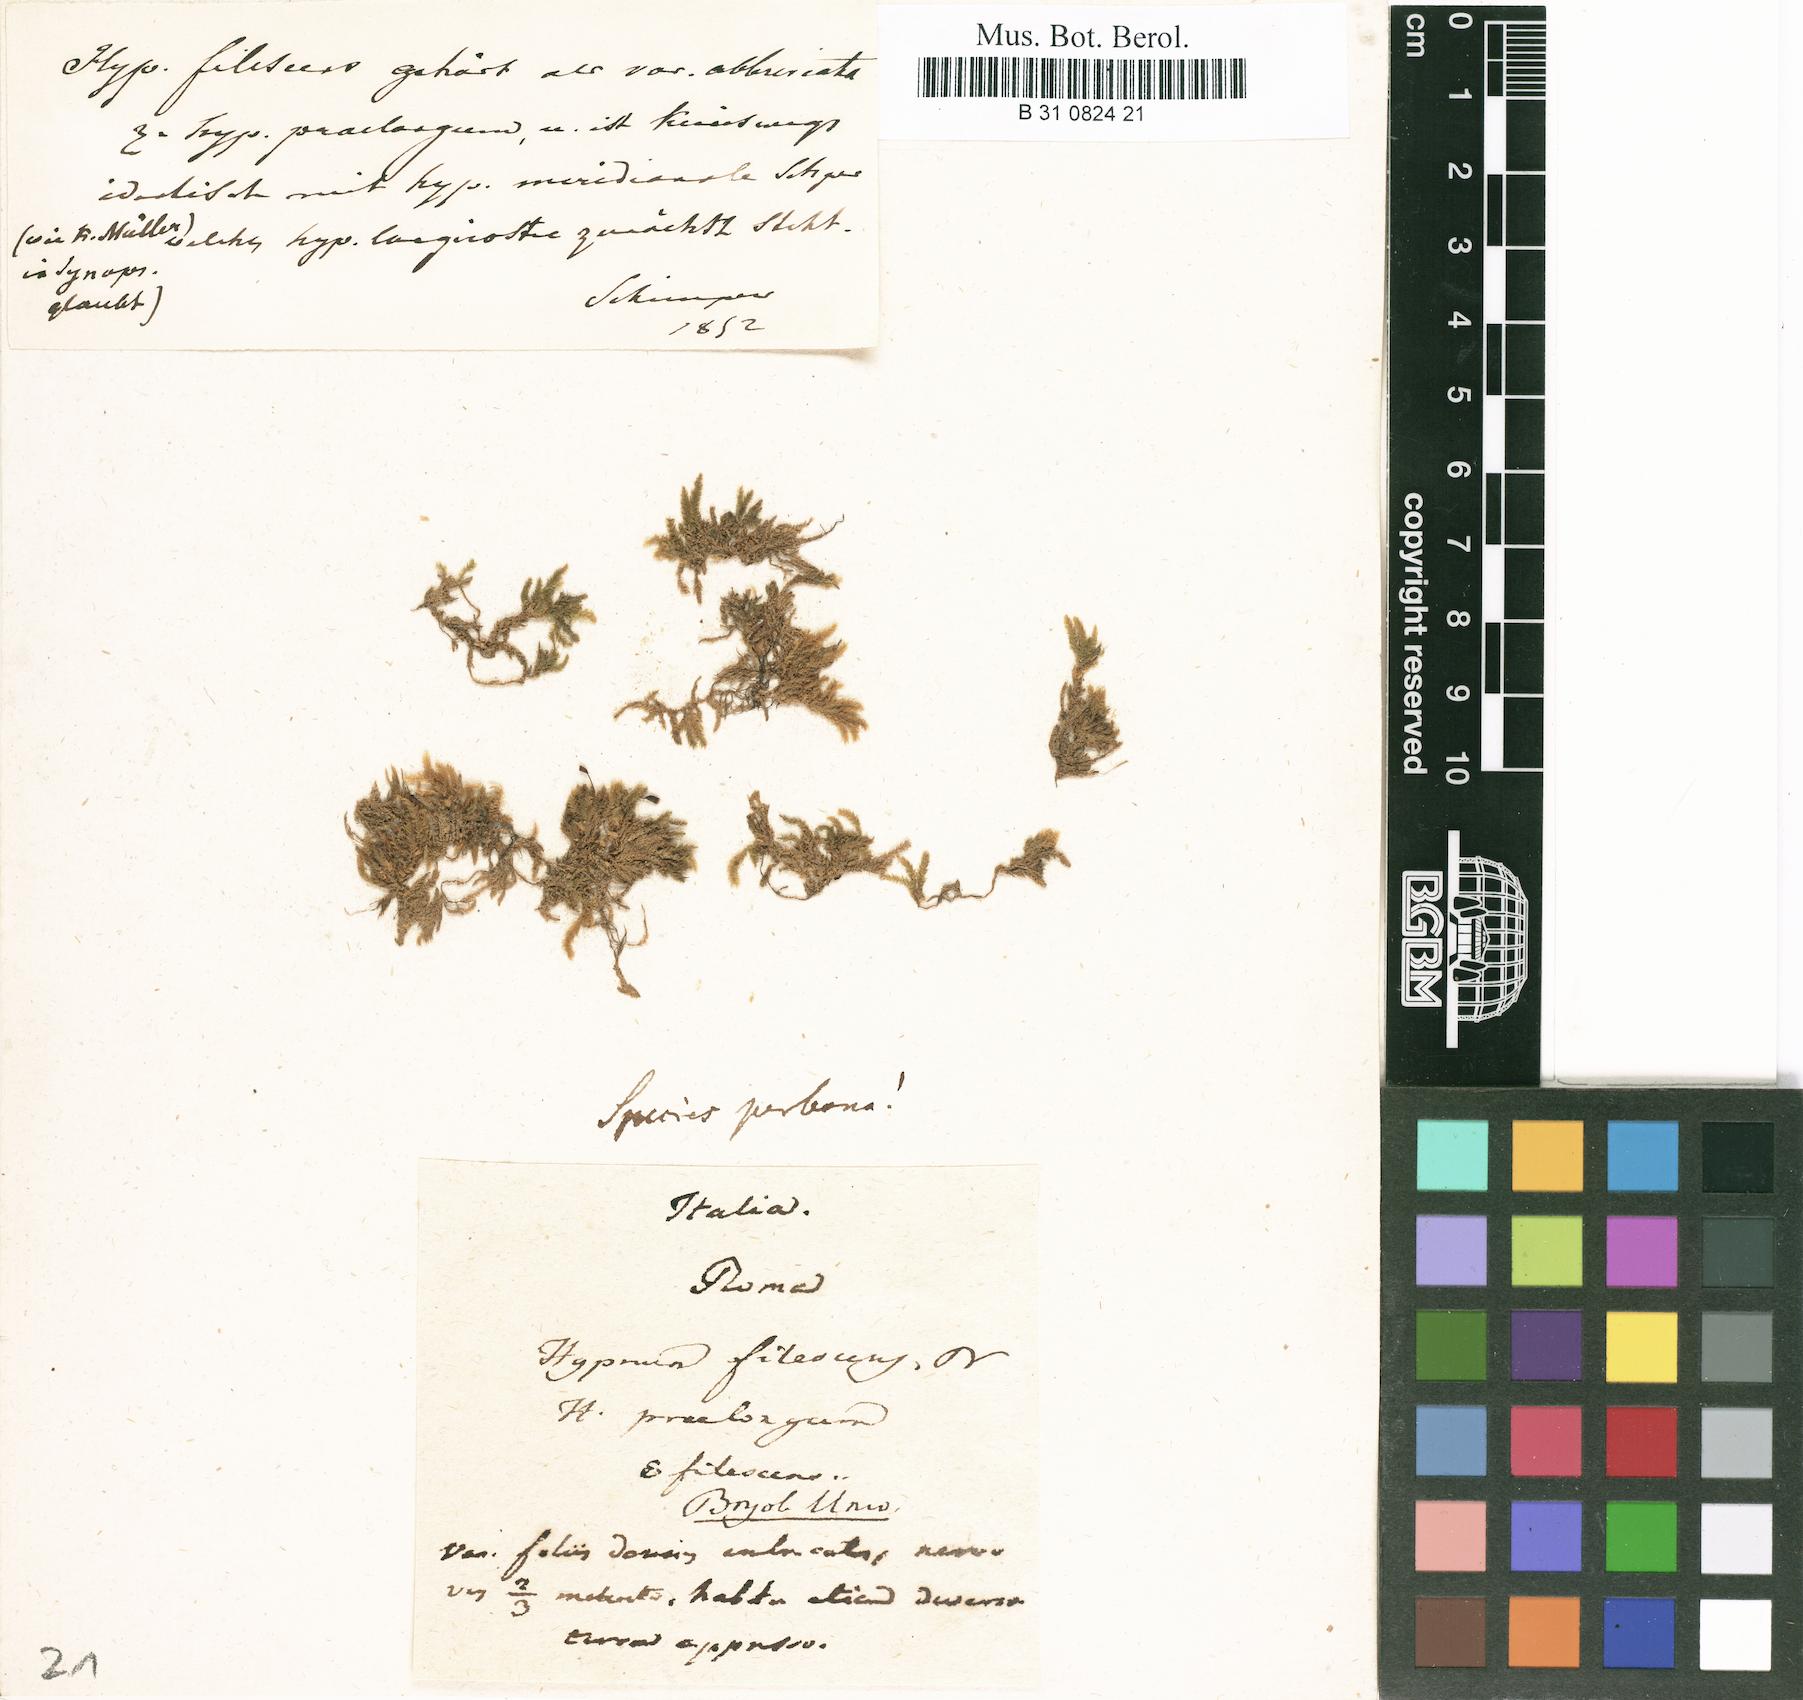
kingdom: Plantae
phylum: Bryophyta
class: Bryopsida
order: Hypnales
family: Brachytheciaceae
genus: Kindbergia
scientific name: Kindbergia praelonga
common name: Slender beaked moss
